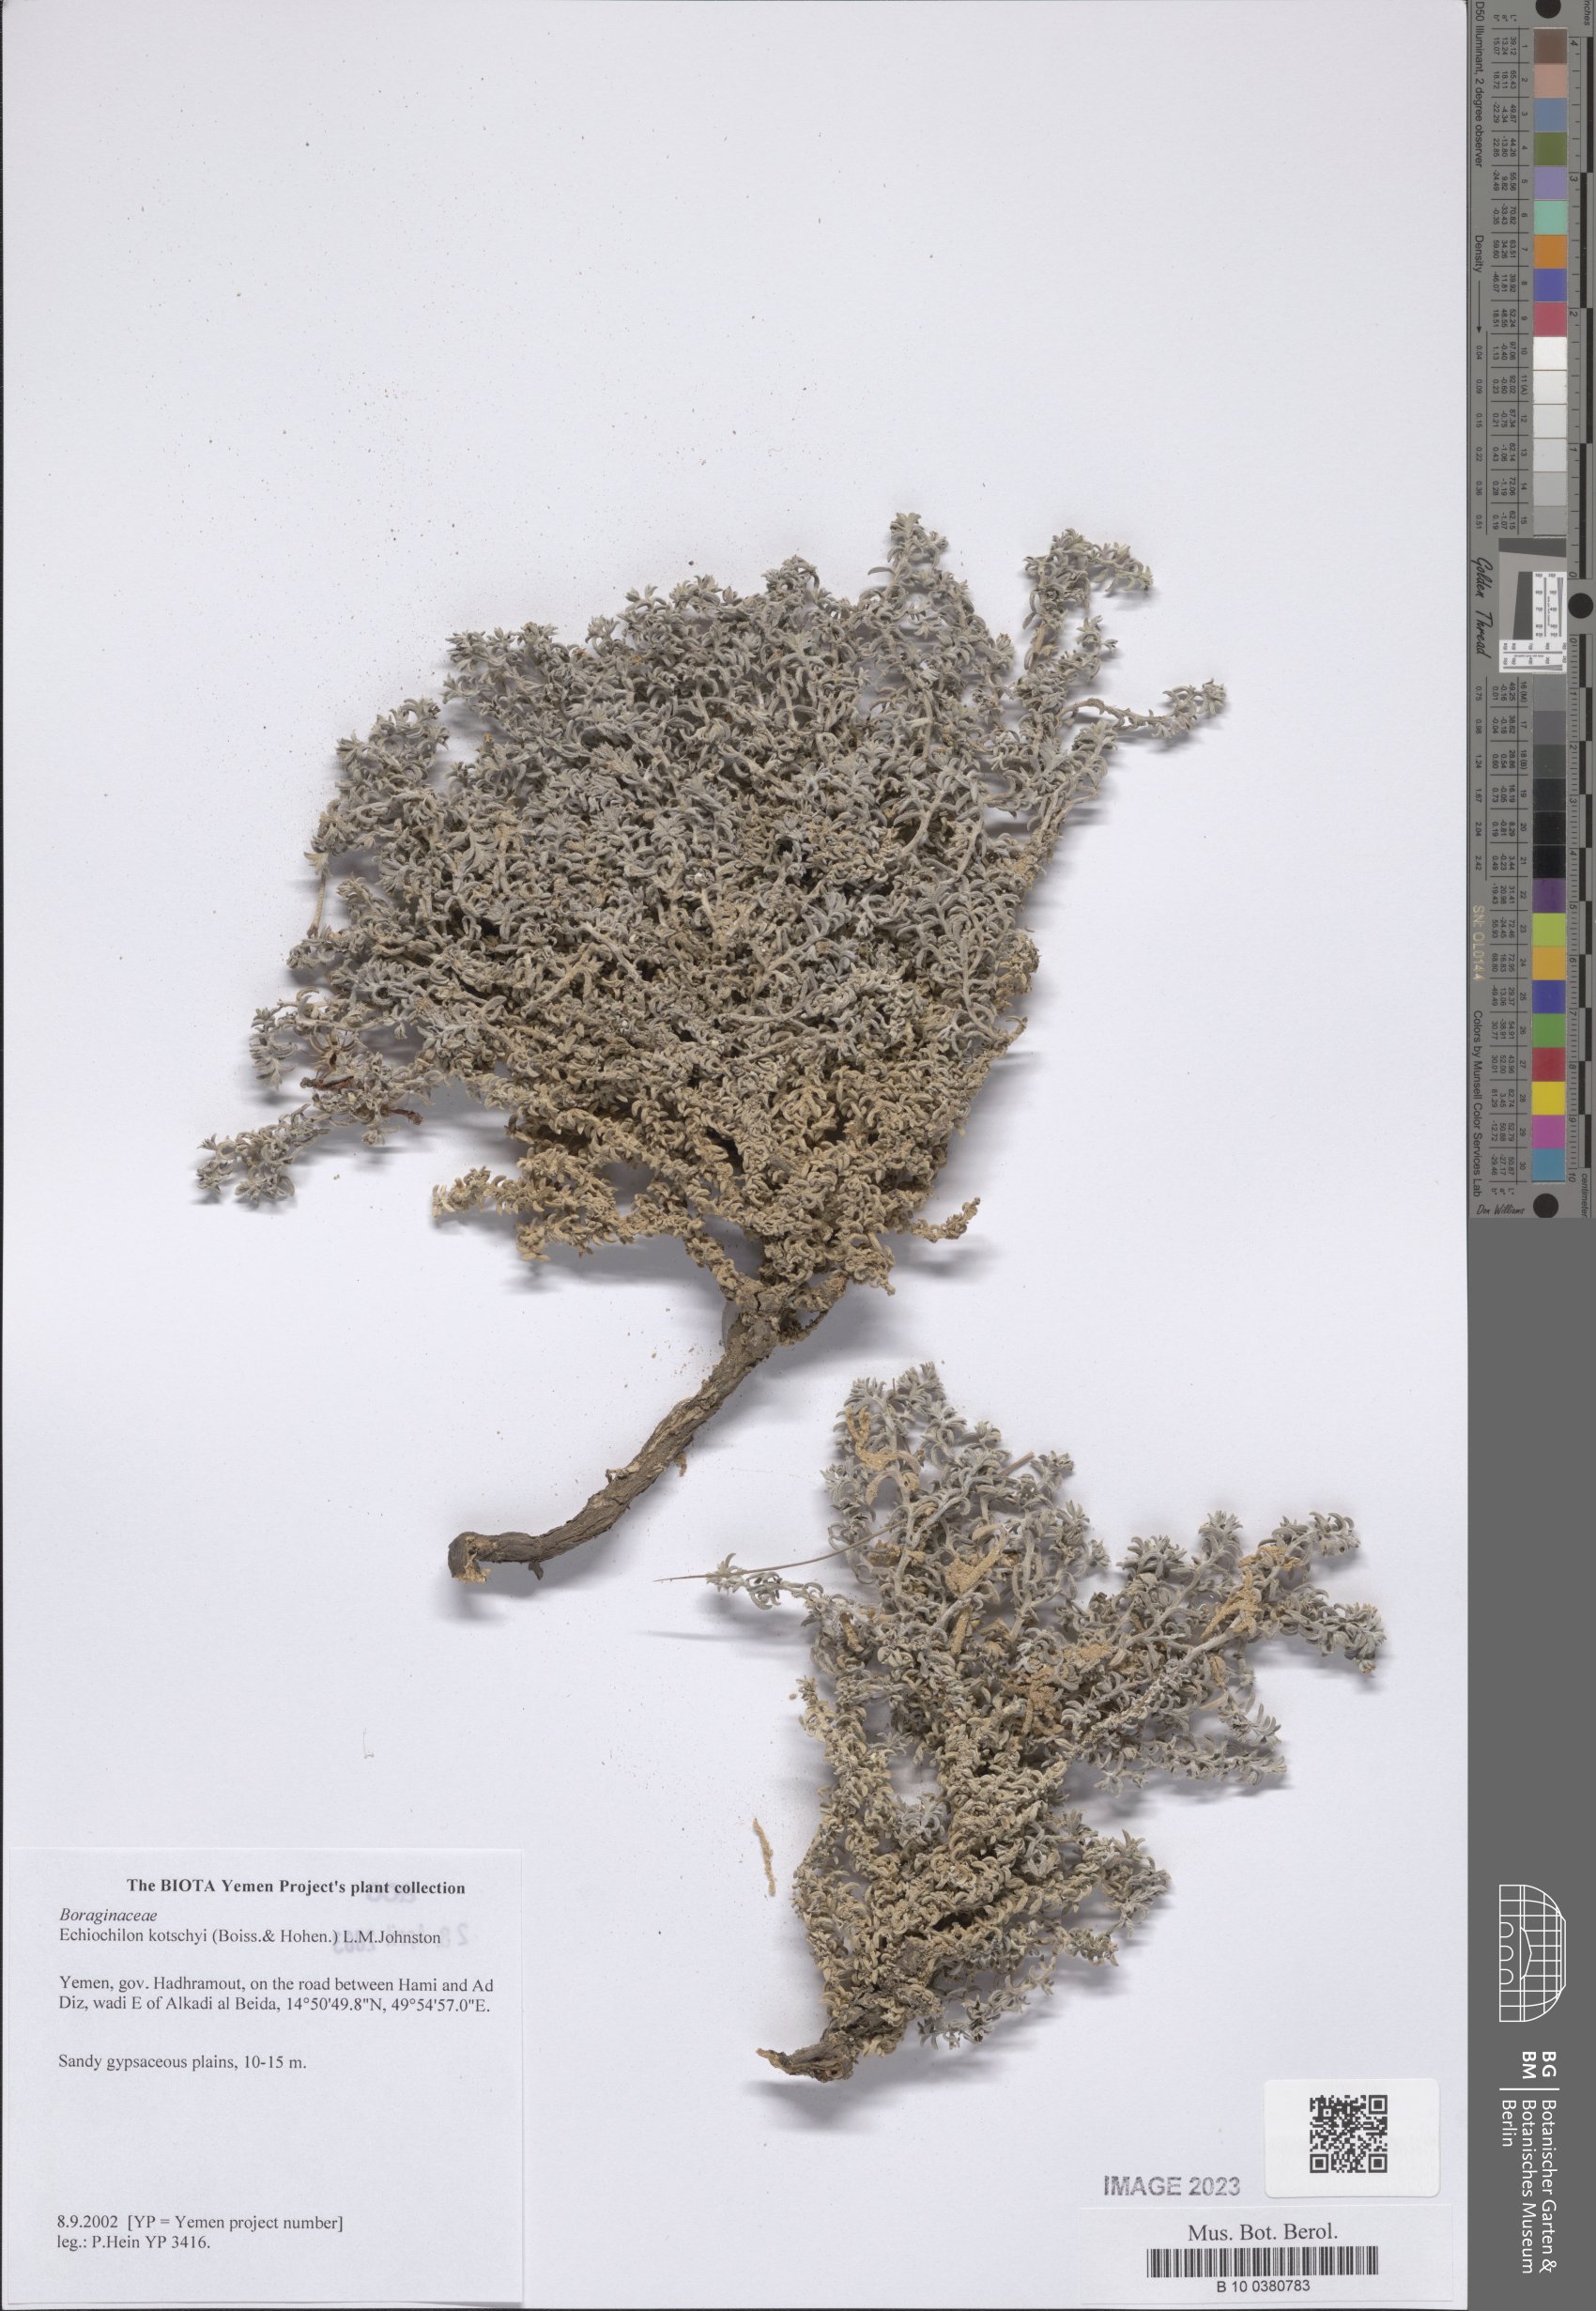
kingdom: Plantae
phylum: Tracheophyta
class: Magnoliopsida
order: Boraginales
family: Boraginaceae
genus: Echiochilon
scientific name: Echiochilon kotschyi
